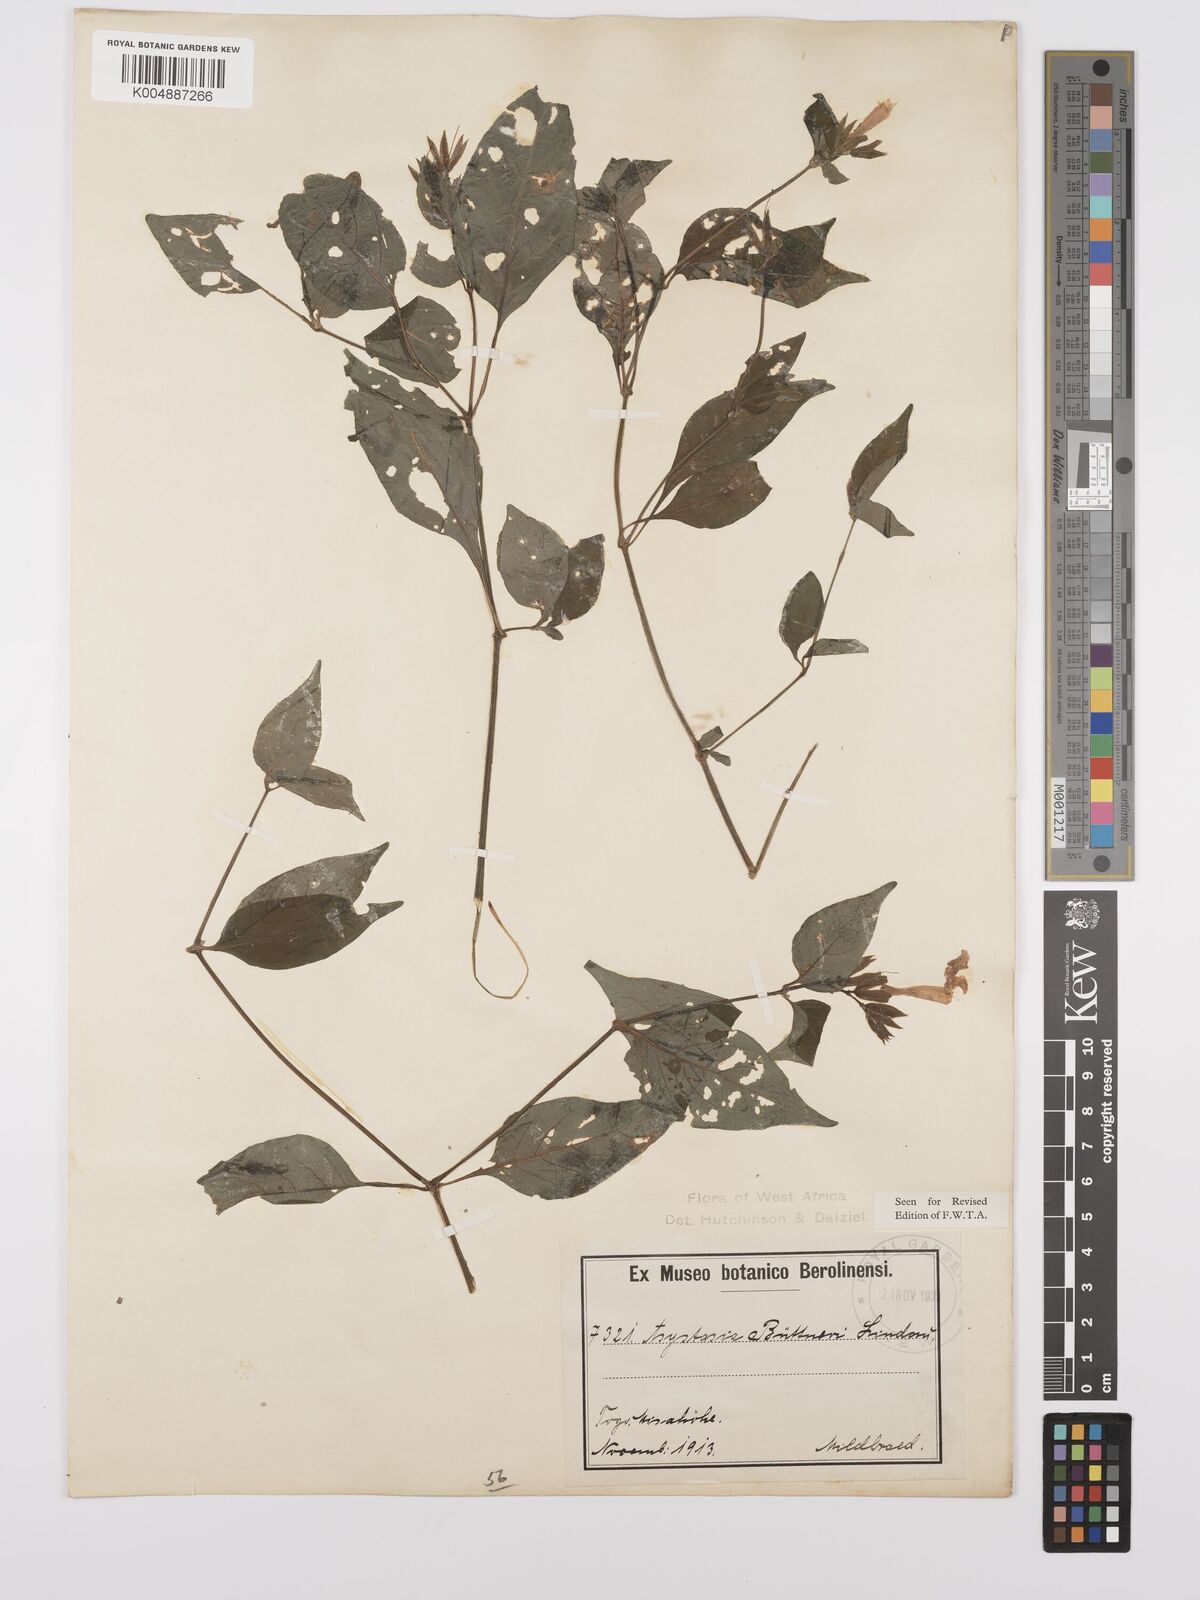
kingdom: Plantae
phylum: Tracheophyta
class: Magnoliopsida
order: Lamiales
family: Acanthaceae
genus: Asystasia
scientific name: Asystasia buettneri
